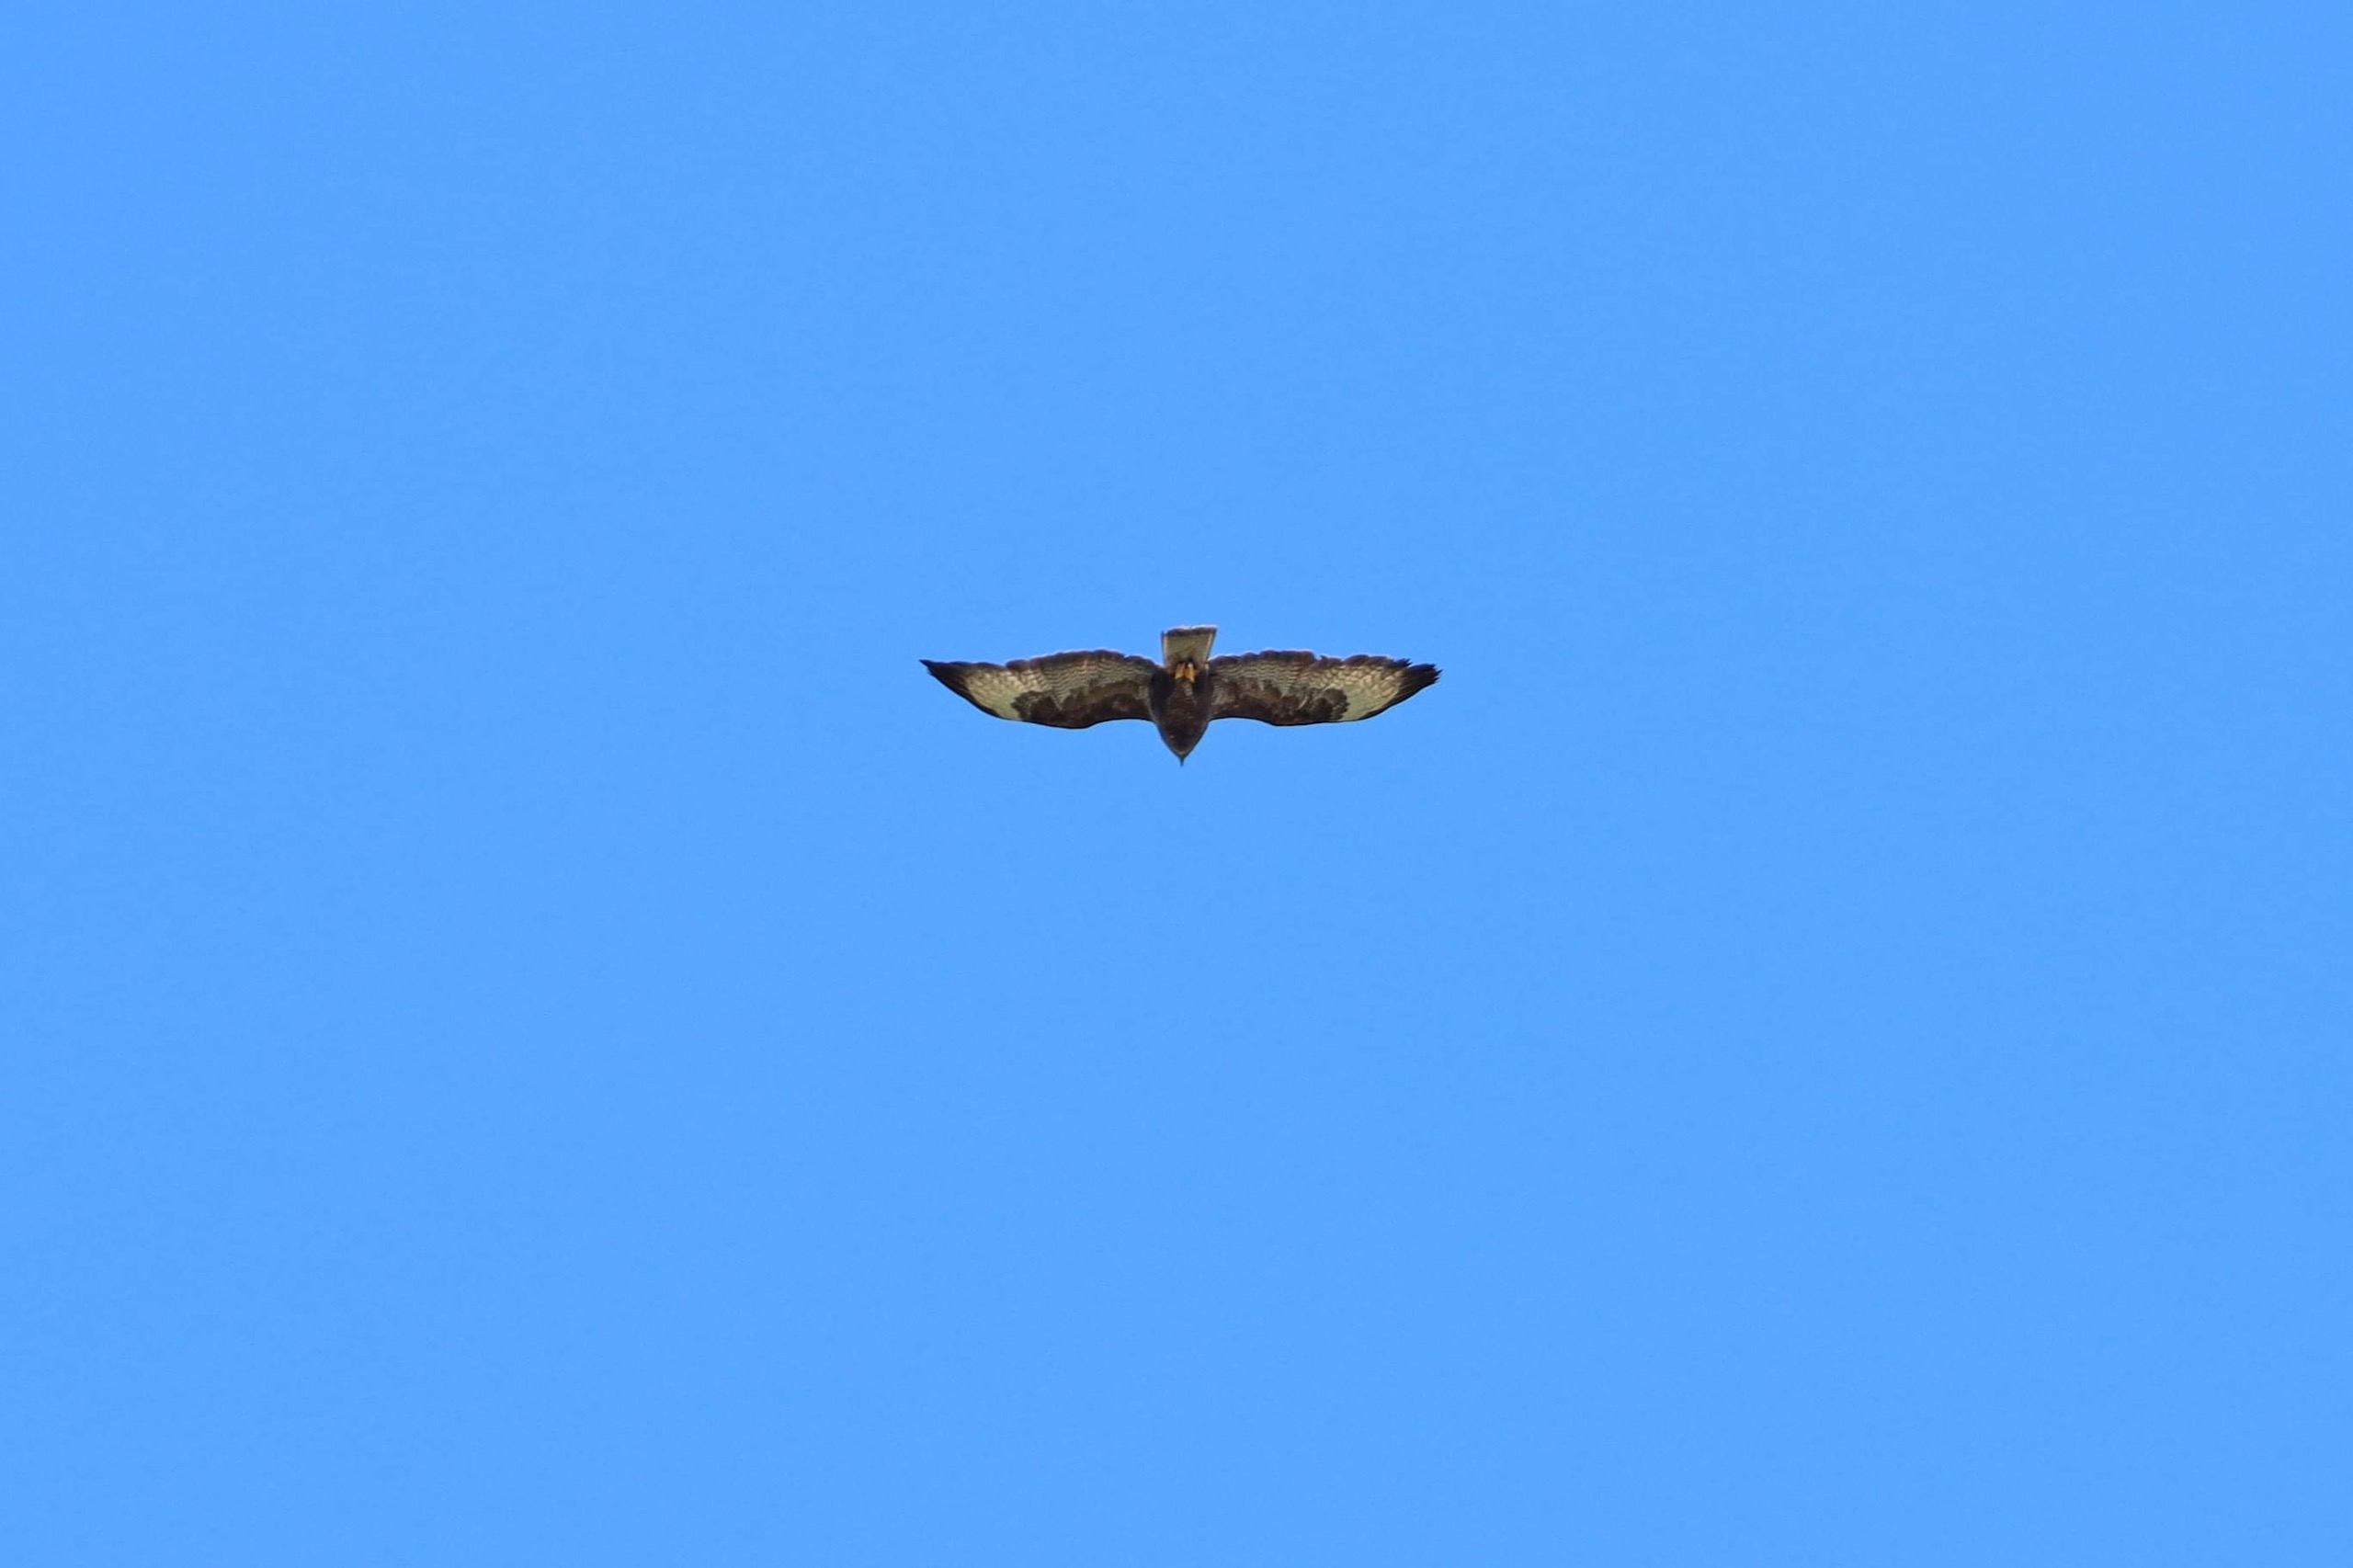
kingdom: Animalia
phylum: Chordata
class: Aves
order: Accipitriformes
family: Accipitridae
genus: Buteo
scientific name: Buteo buteo
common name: Musvåge
